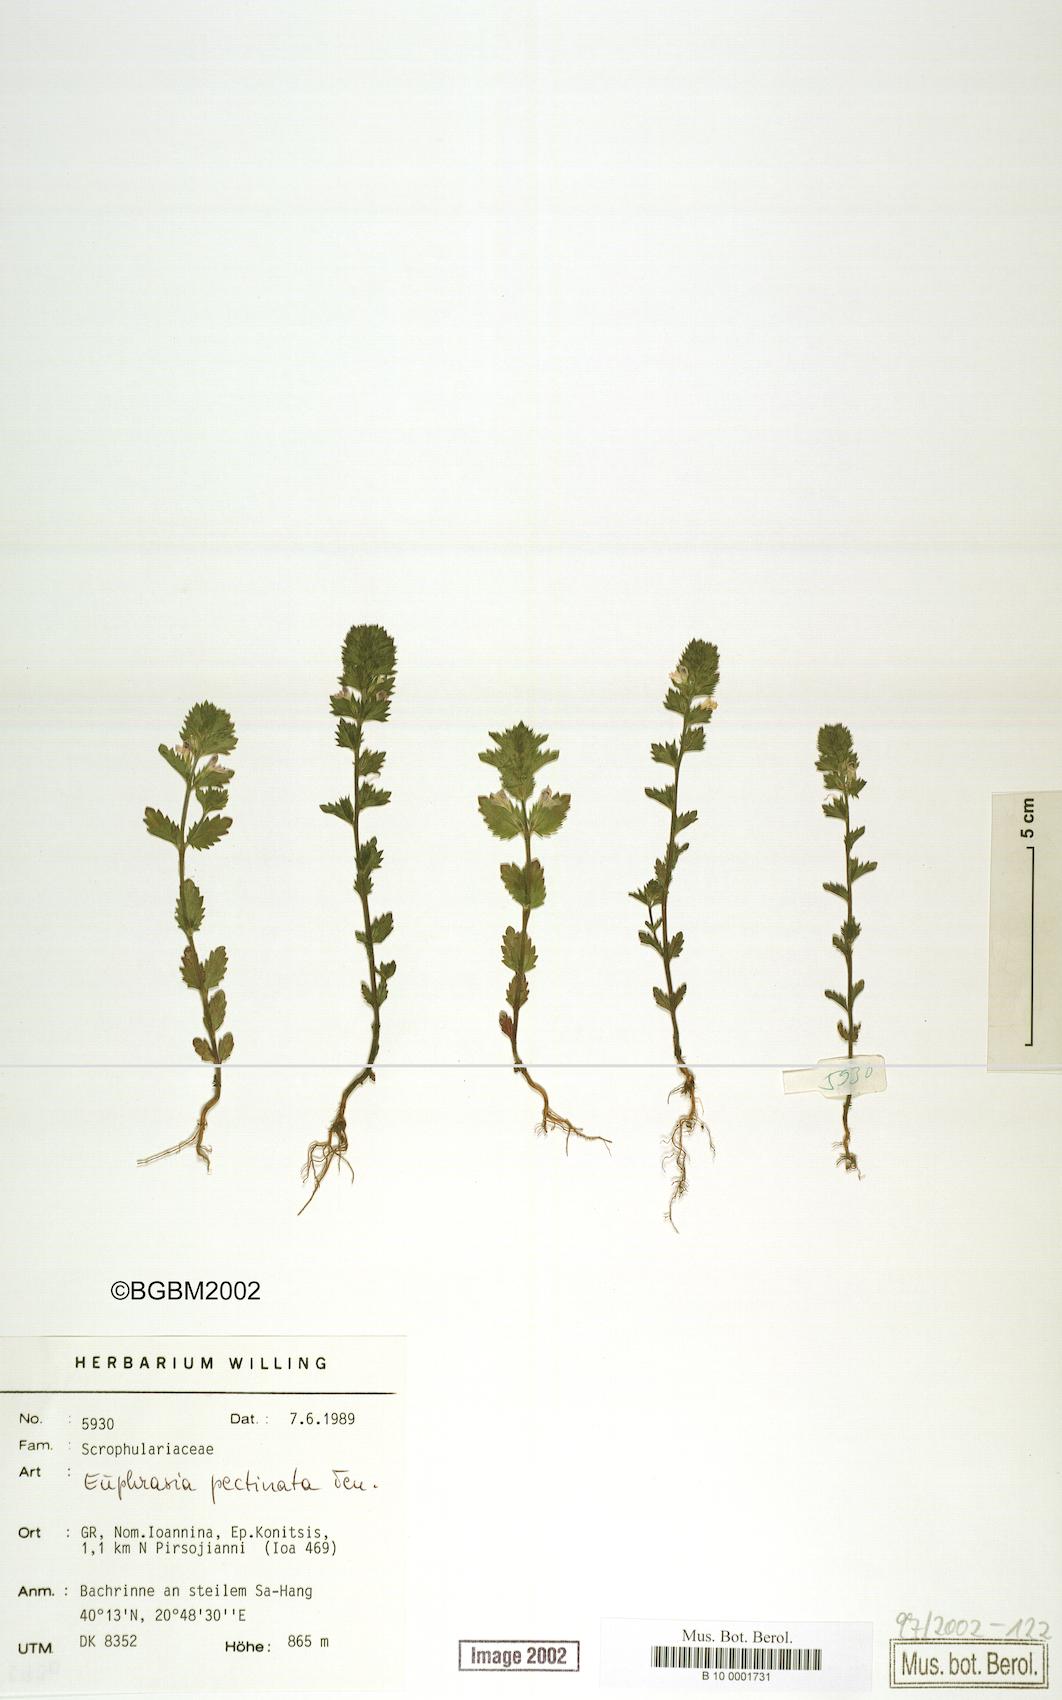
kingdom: Plantae
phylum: Tracheophyta
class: Magnoliopsida
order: Lamiales
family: Orobanchaceae
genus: Euphrasia
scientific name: Euphrasia pectinata
